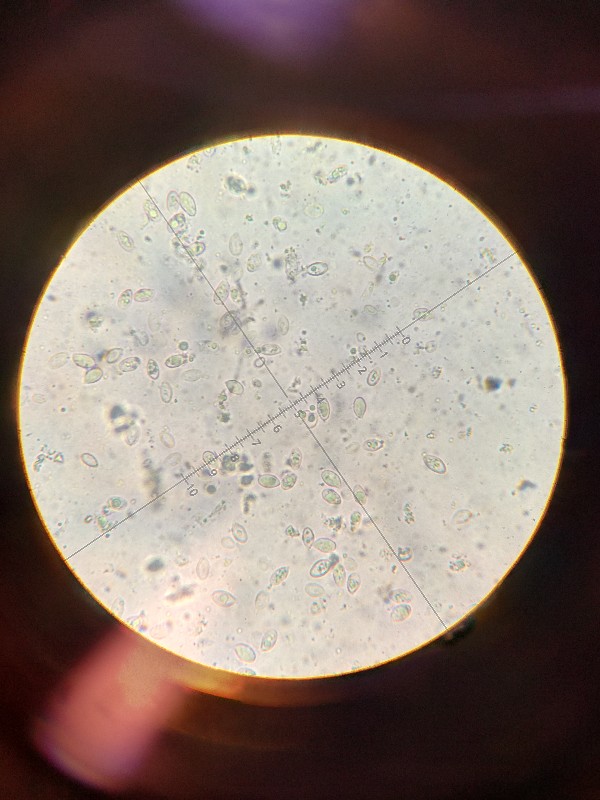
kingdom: Fungi
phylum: Basidiomycota
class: Agaricomycetes
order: Agaricales
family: Lyophyllaceae
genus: Lyophyllum
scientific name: Lyophyllum
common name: gråblad
